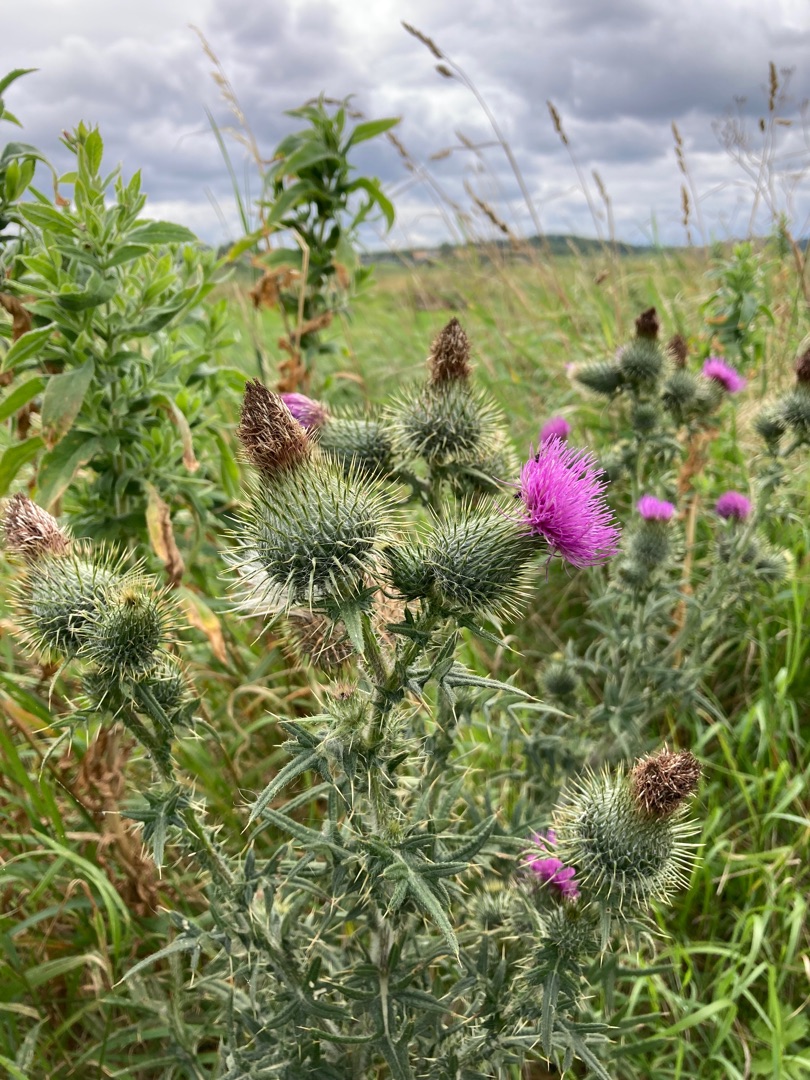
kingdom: Plantae
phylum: Tracheophyta
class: Magnoliopsida
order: Asterales
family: Asteraceae
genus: Cirsium
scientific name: Cirsium vulgare
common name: Horse-tidsel
